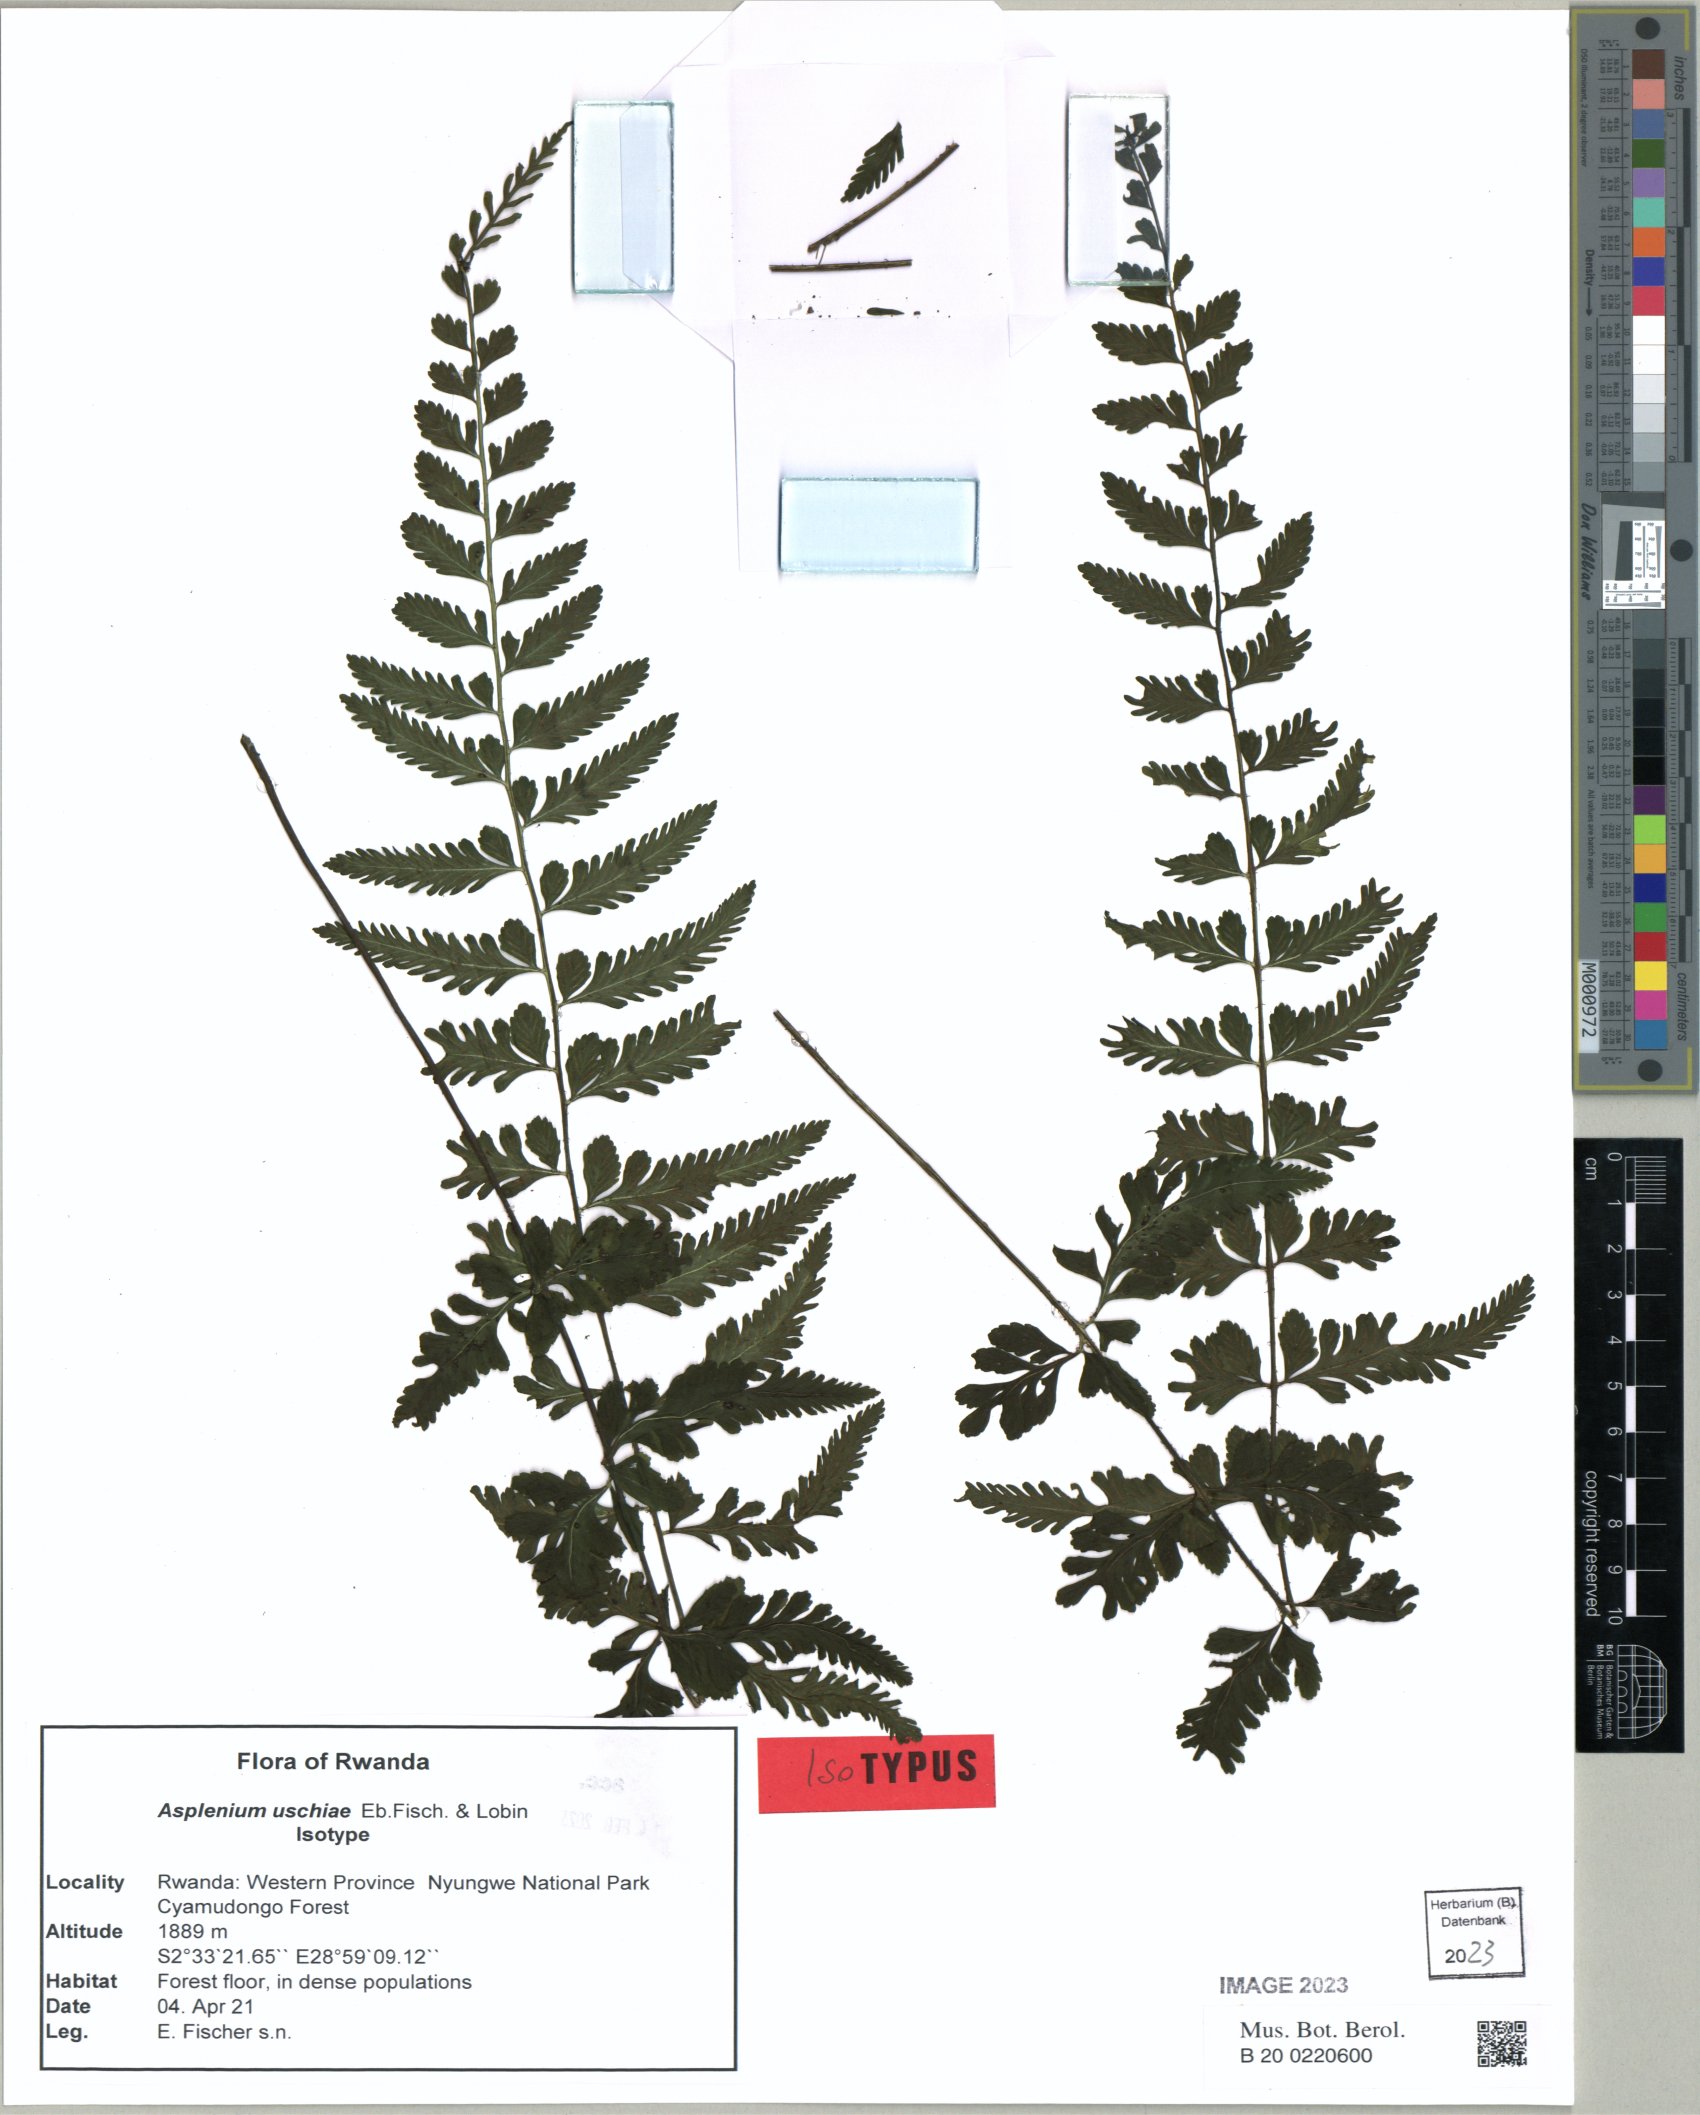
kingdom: Plantae
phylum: Tracheophyta
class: Polypodiopsida
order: Polypodiales
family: Aspleniaceae
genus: Asplenium
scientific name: Asplenium
